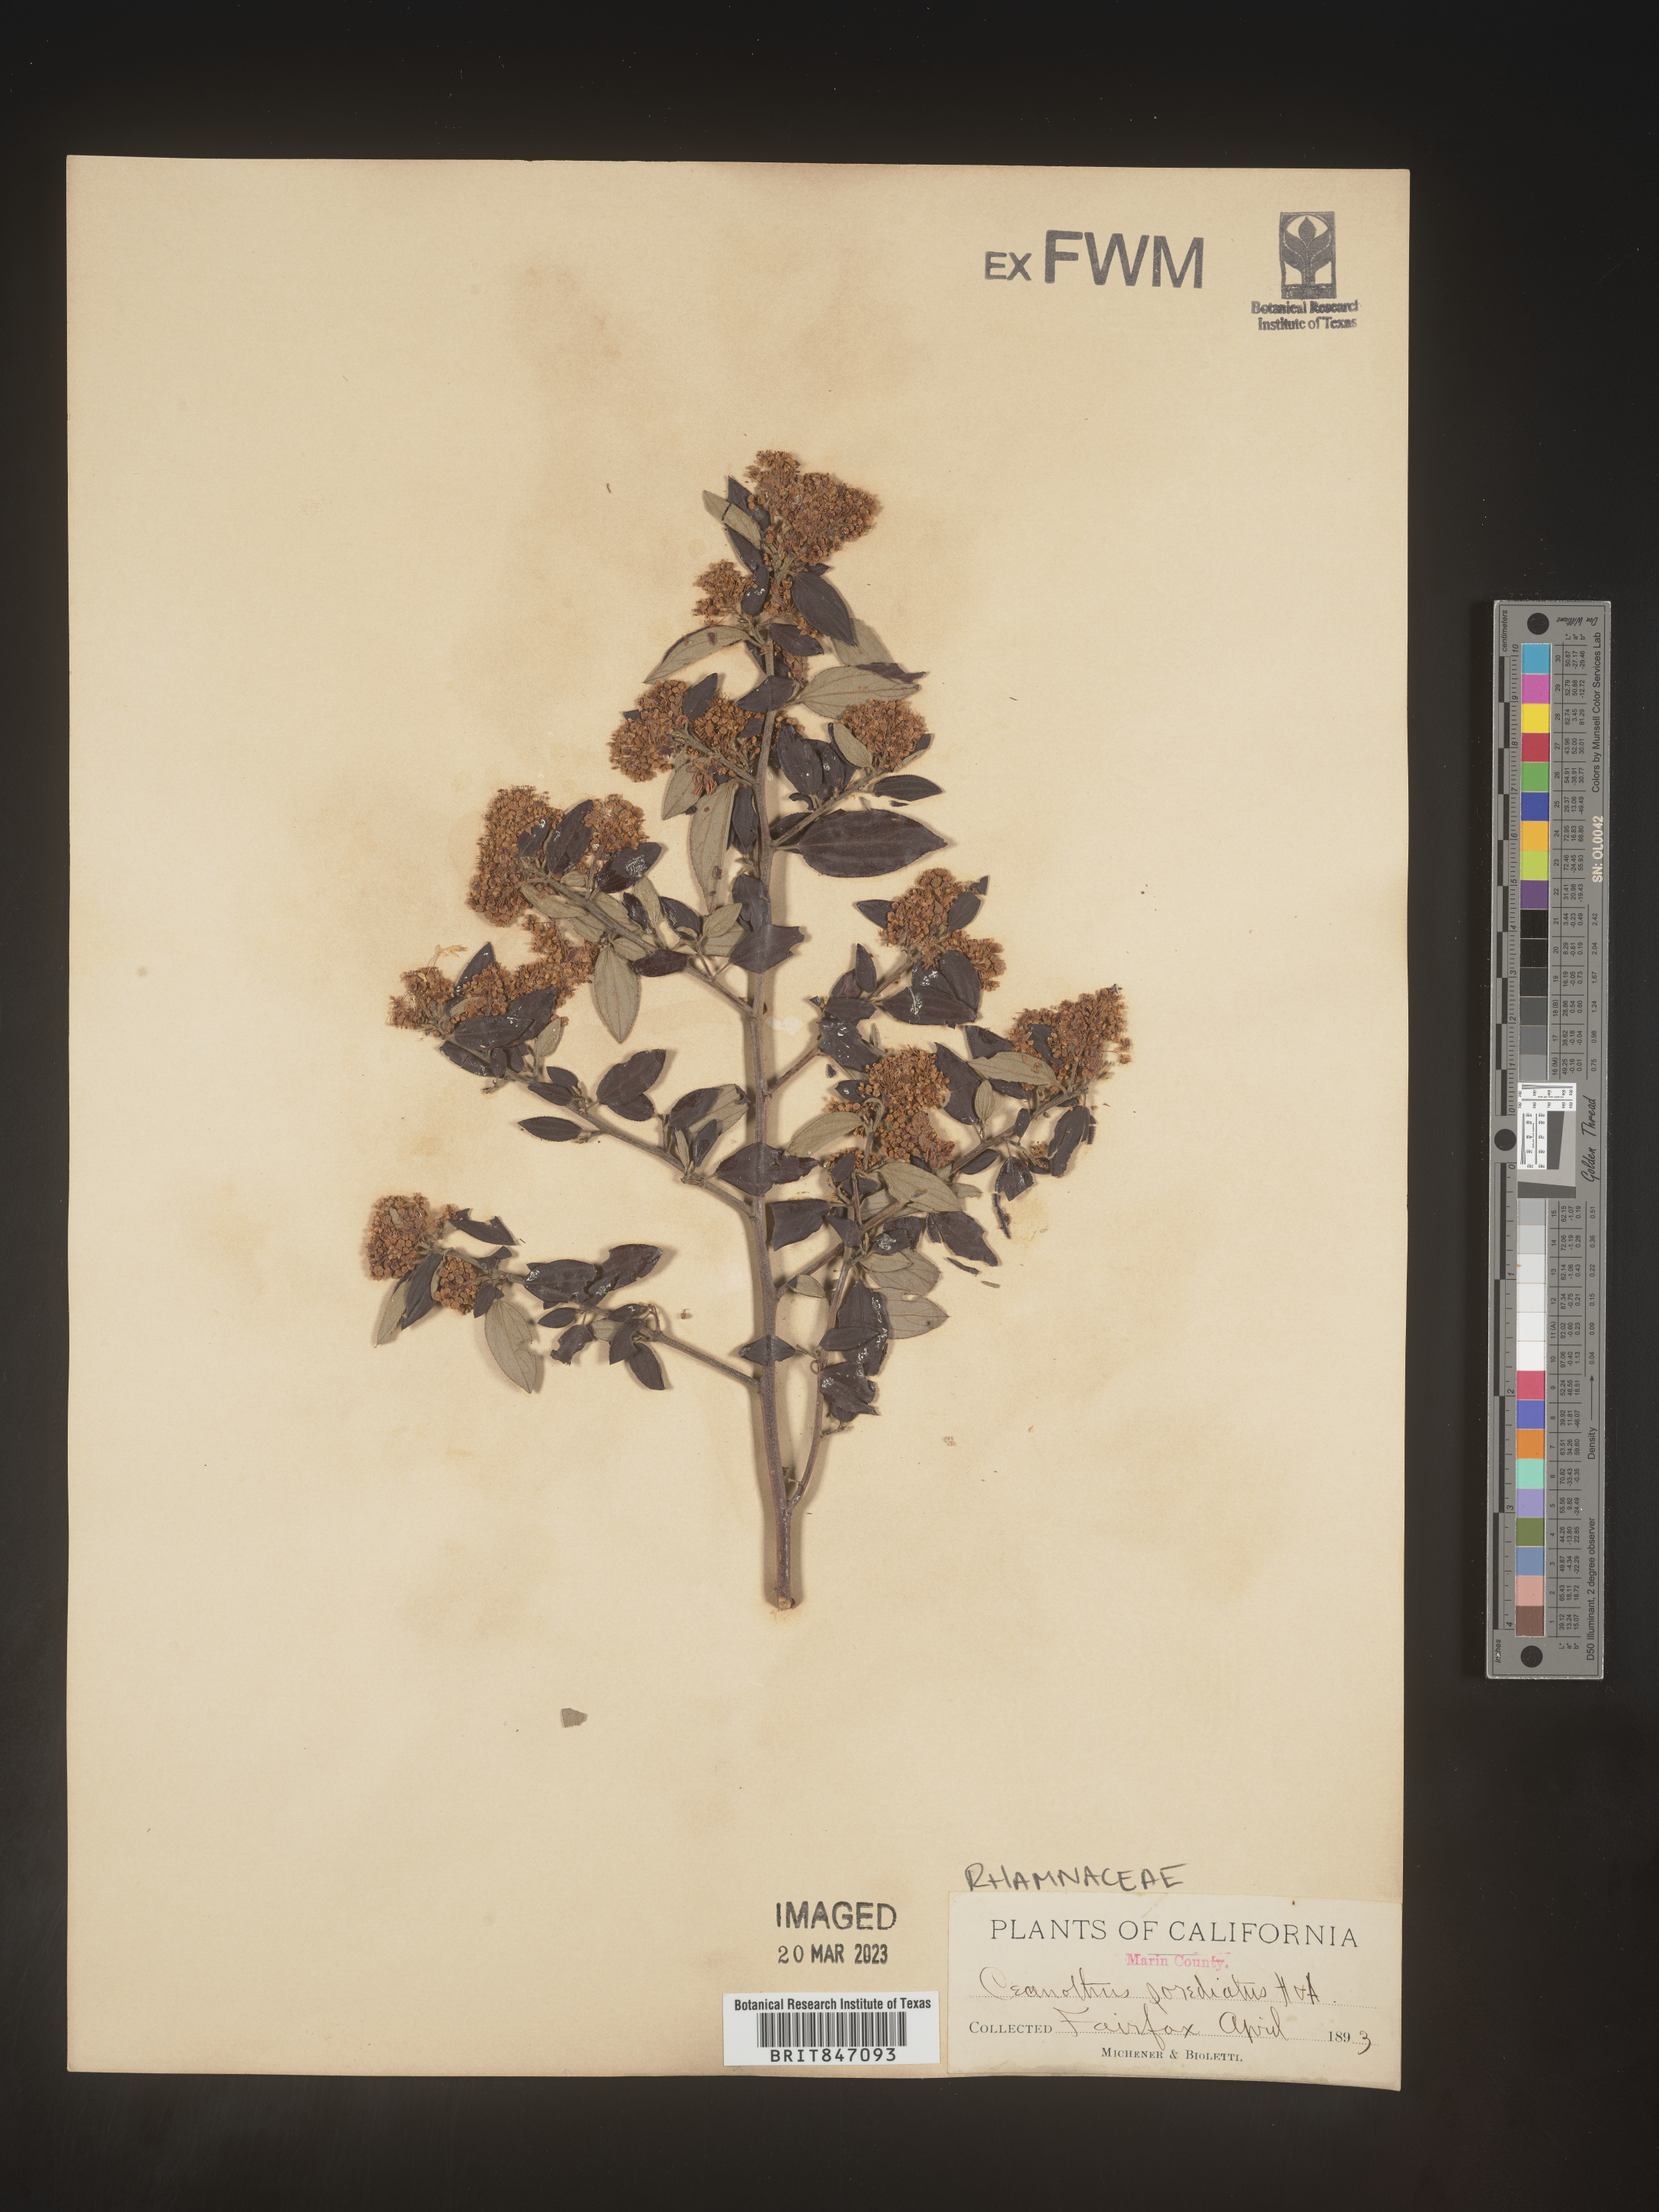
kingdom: Plantae
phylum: Tracheophyta
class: Magnoliopsida
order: Rosales
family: Rhamnaceae
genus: Ceanothus
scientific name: Ceanothus
